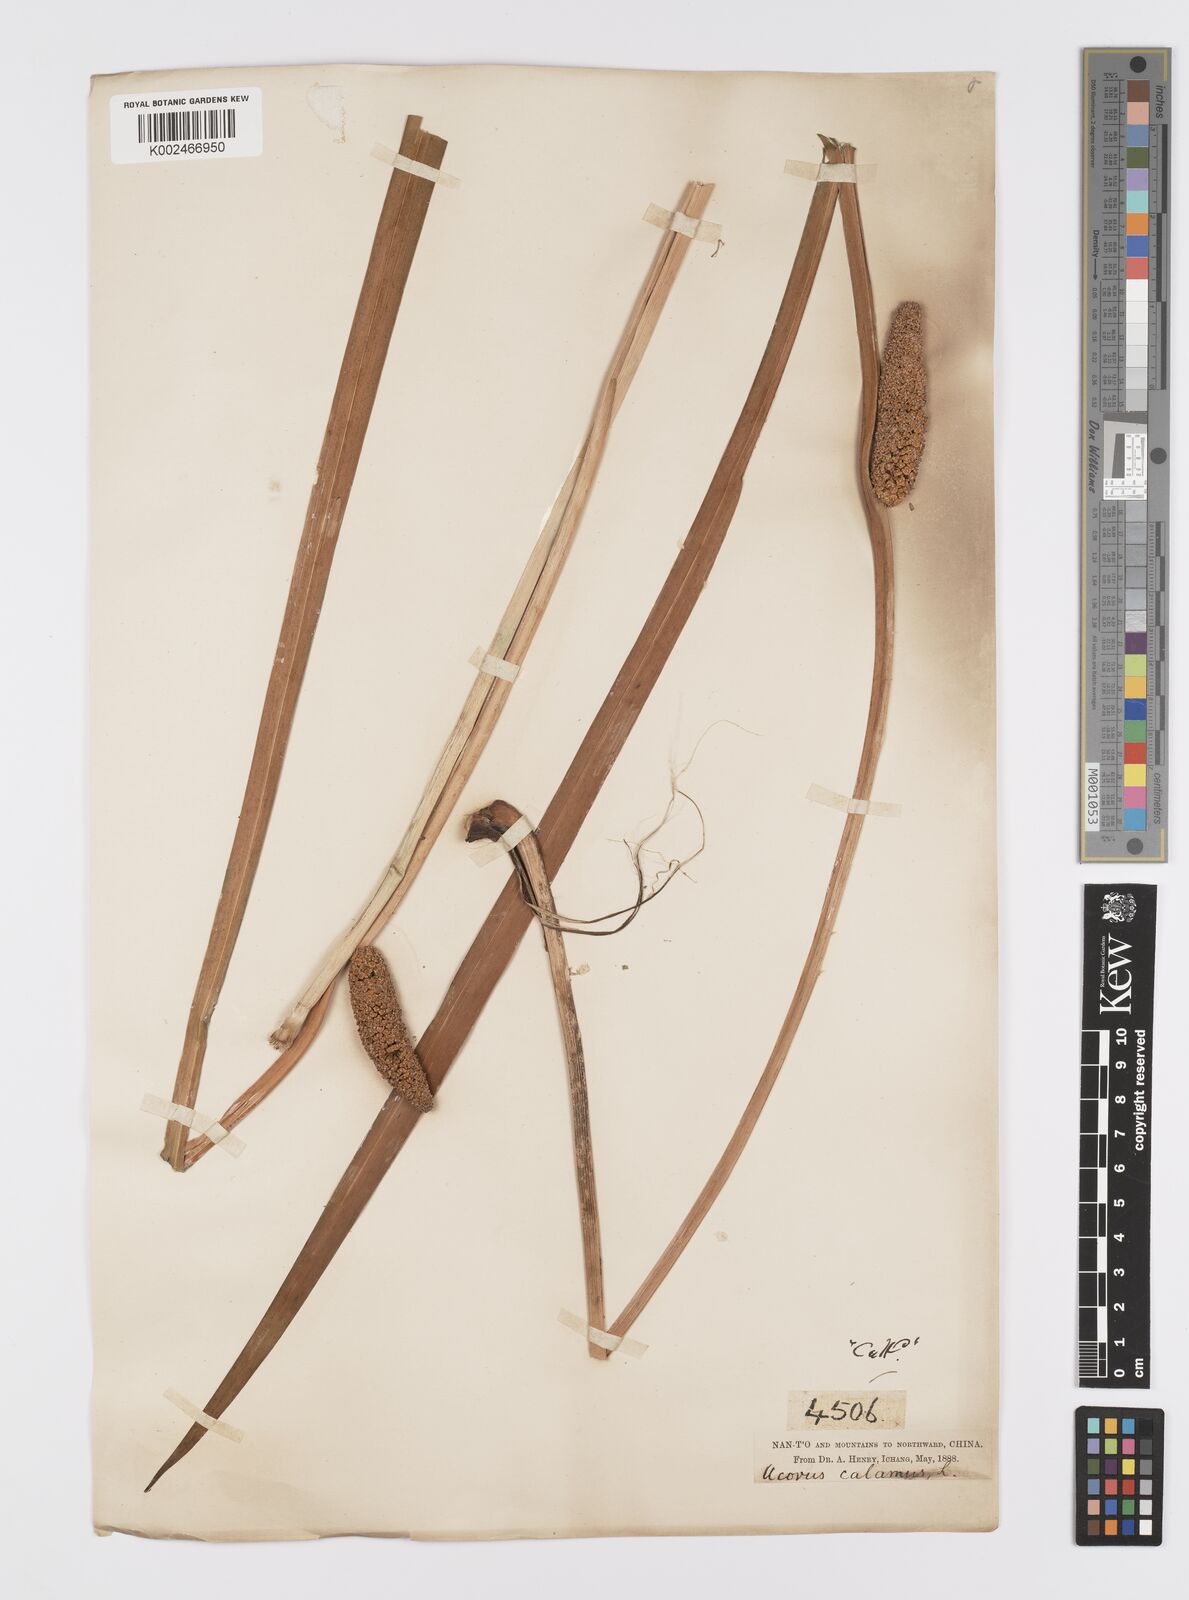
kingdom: Plantae
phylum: Tracheophyta
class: Liliopsida
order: Acorales
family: Acoraceae
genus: Acorus
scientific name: Acorus calamus
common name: Sweet-flag
